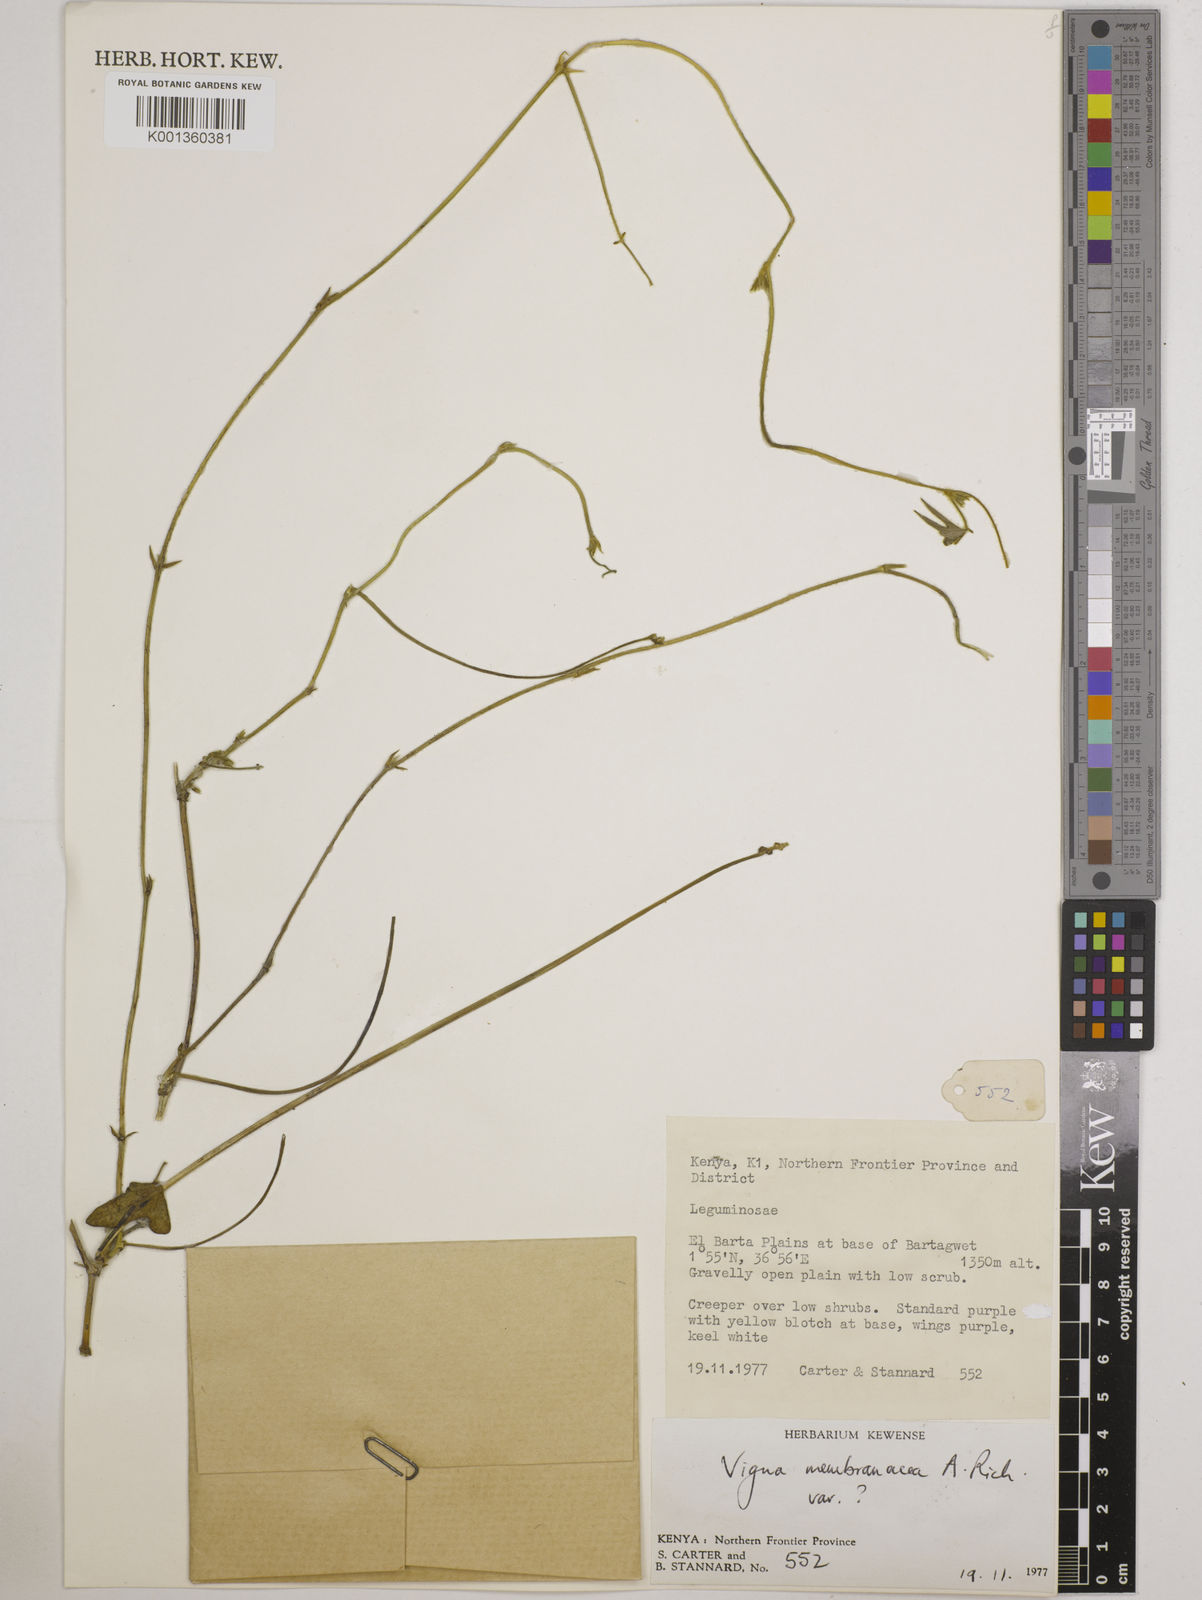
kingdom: Plantae
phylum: Tracheophyta
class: Magnoliopsida
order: Fabales
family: Fabaceae
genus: Vigna
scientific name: Vigna membranacea
